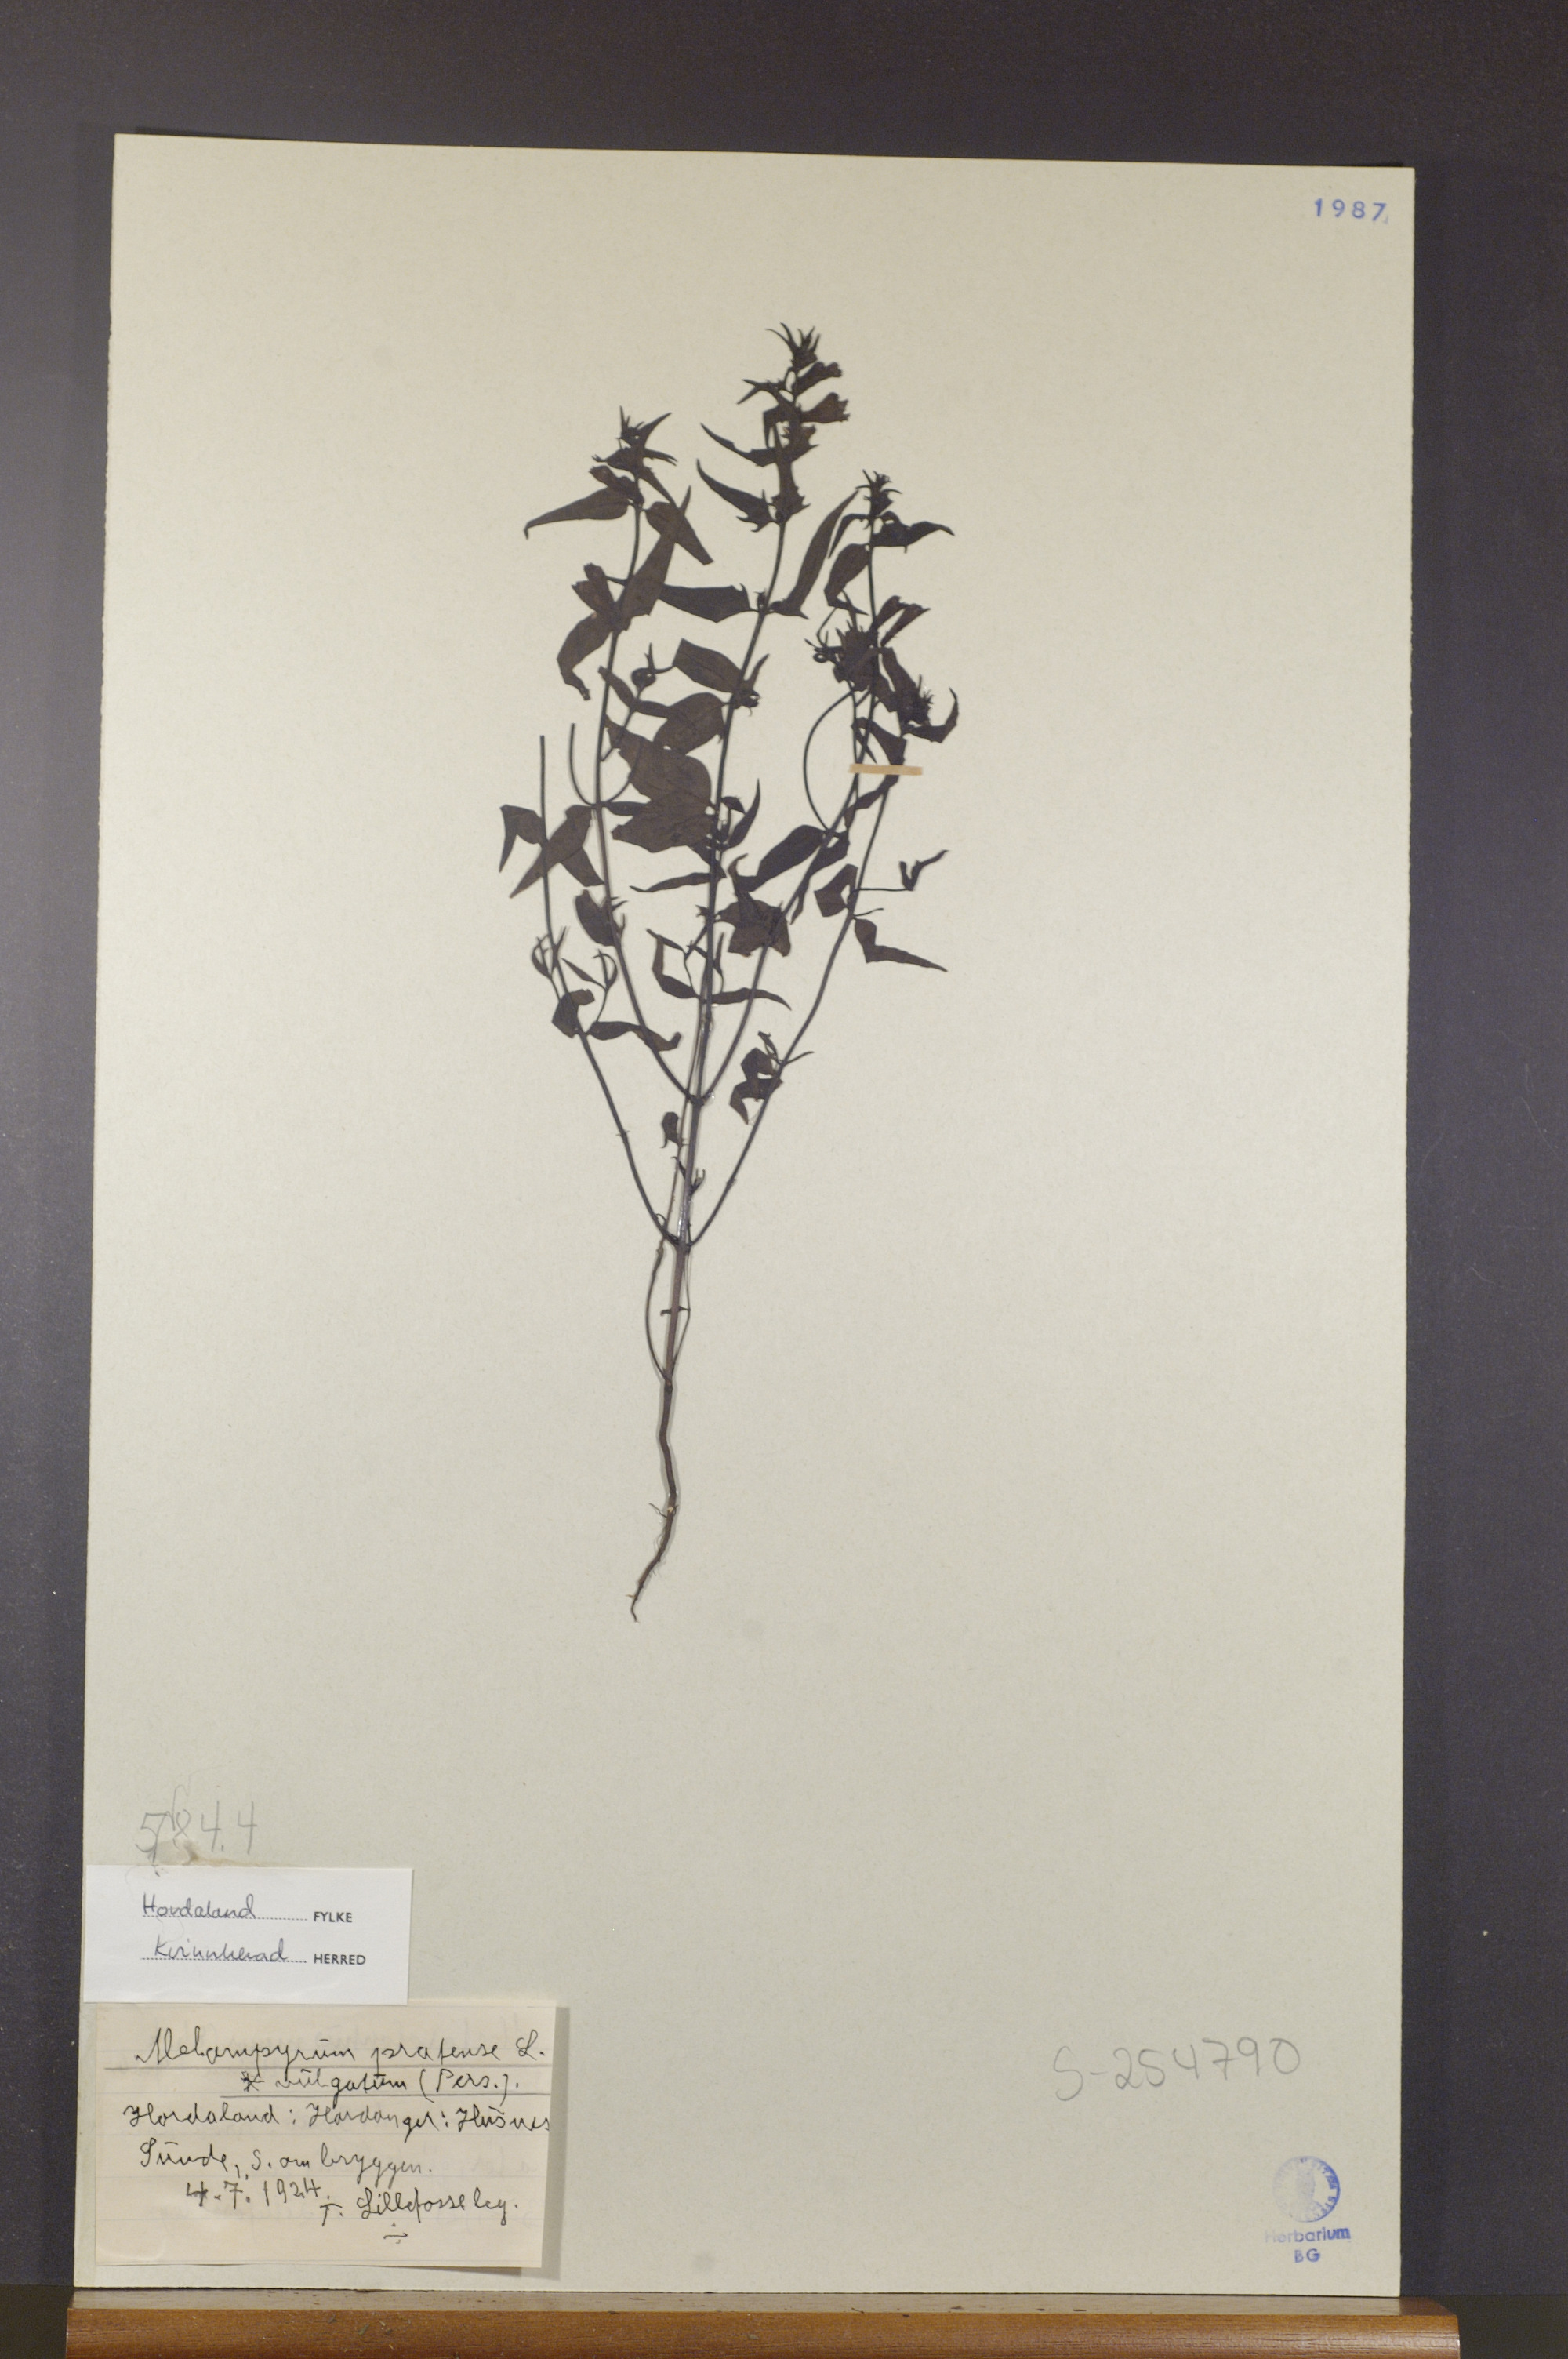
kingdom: Plantae
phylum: Tracheophyta
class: Magnoliopsida
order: Lamiales
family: Orobanchaceae
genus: Melampyrum
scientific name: Melampyrum pratense
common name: Common cow-wheat
